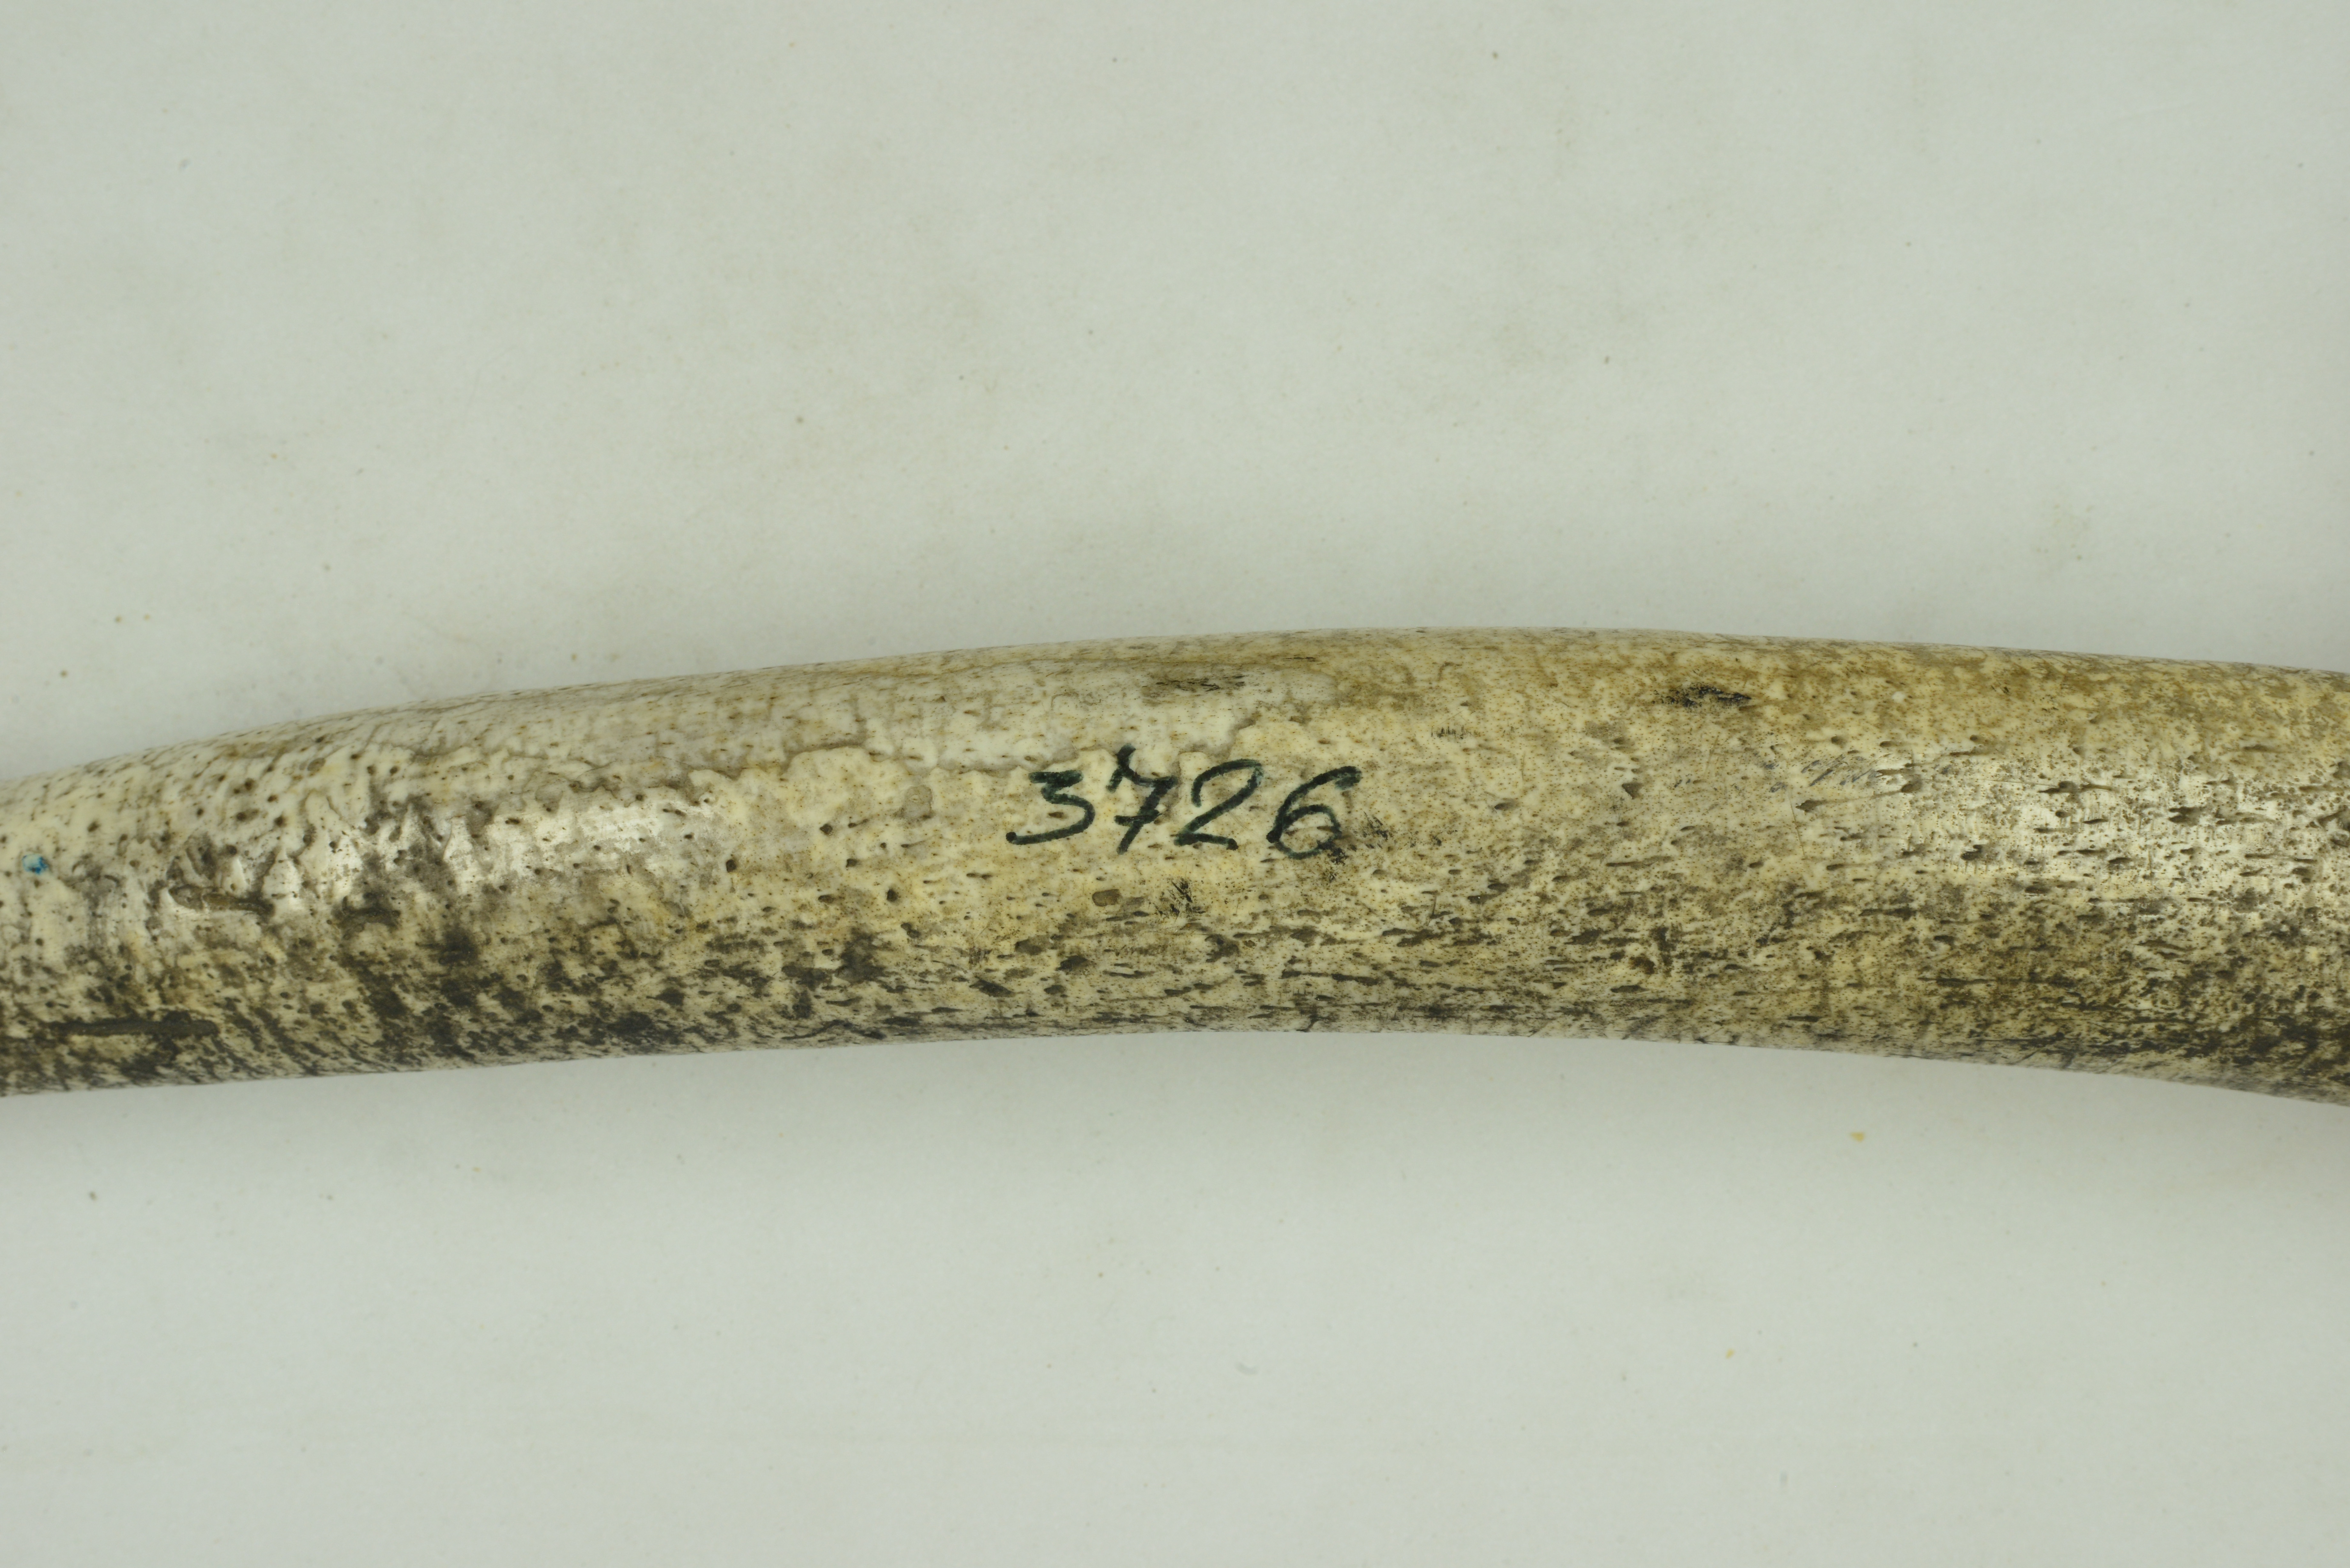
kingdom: Animalia
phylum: Chordata
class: Mammalia
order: Carnivora
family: Odobenidae
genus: Odobenus
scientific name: Odobenus rosmarus
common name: Walrus
